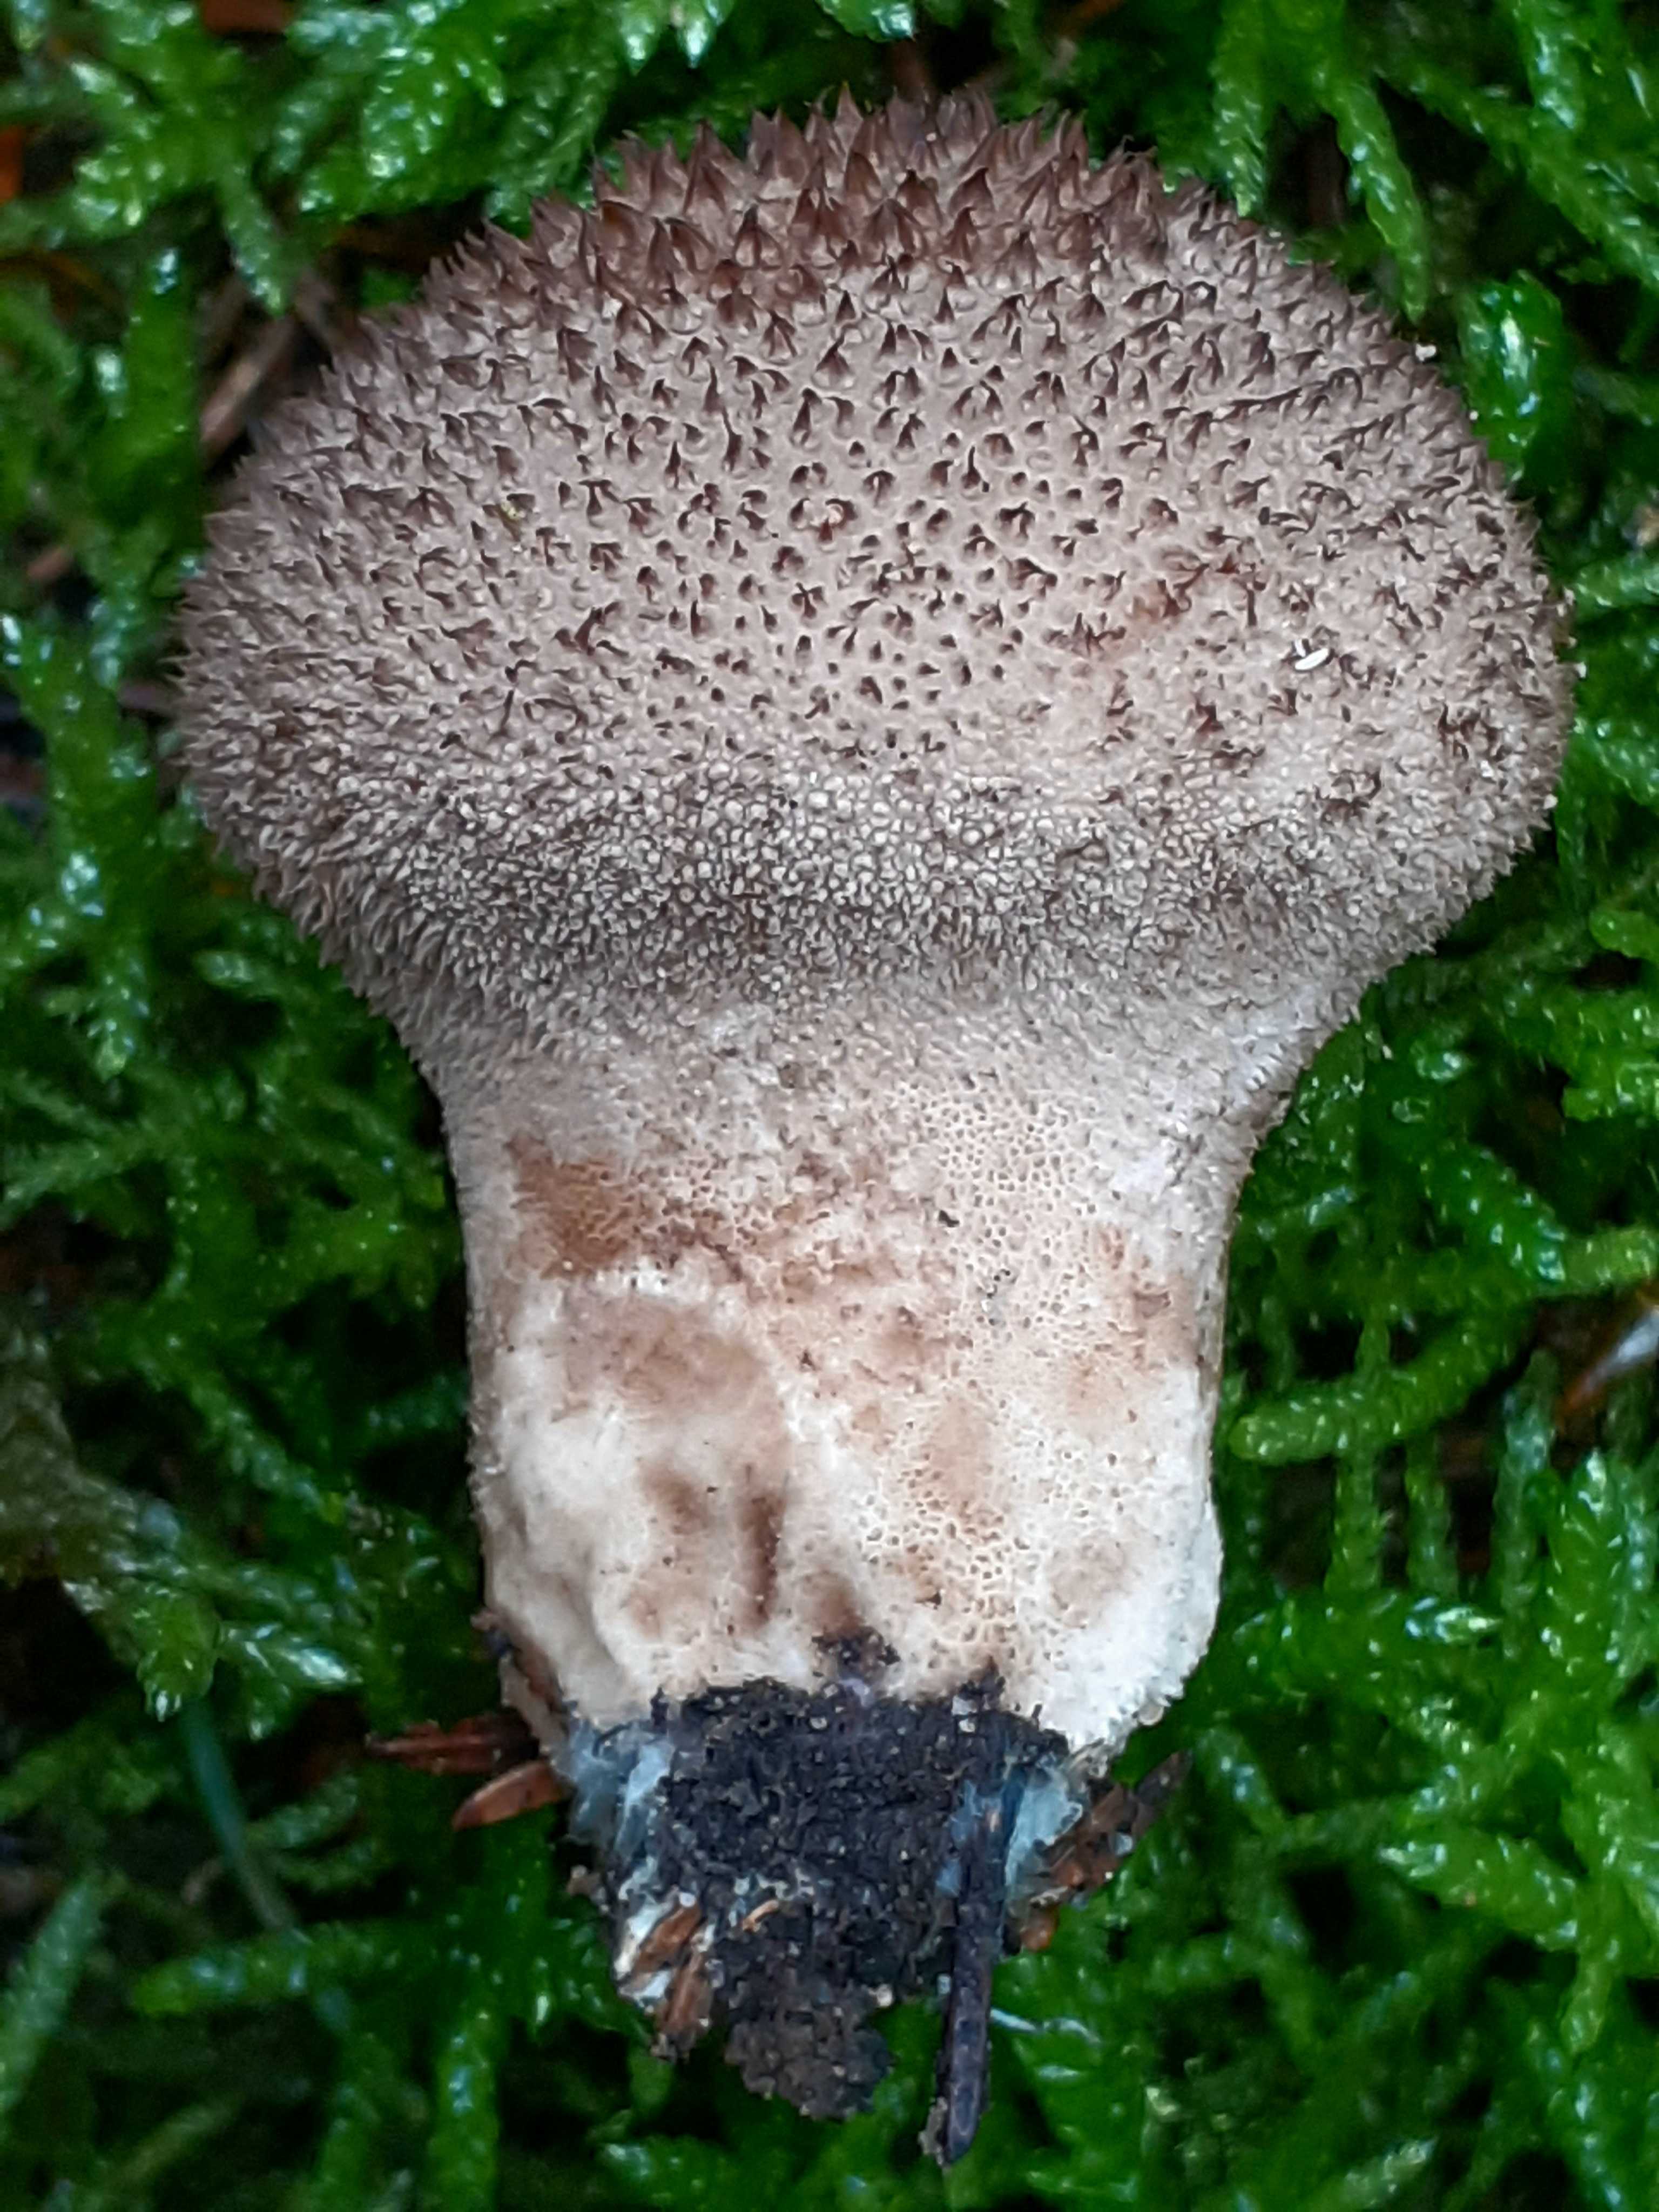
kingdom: Fungi
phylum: Basidiomycota
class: Agaricomycetes
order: Agaricales
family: Lycoperdaceae
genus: Lycoperdon
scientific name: Lycoperdon nigrescens
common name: sortagtig støvbold
